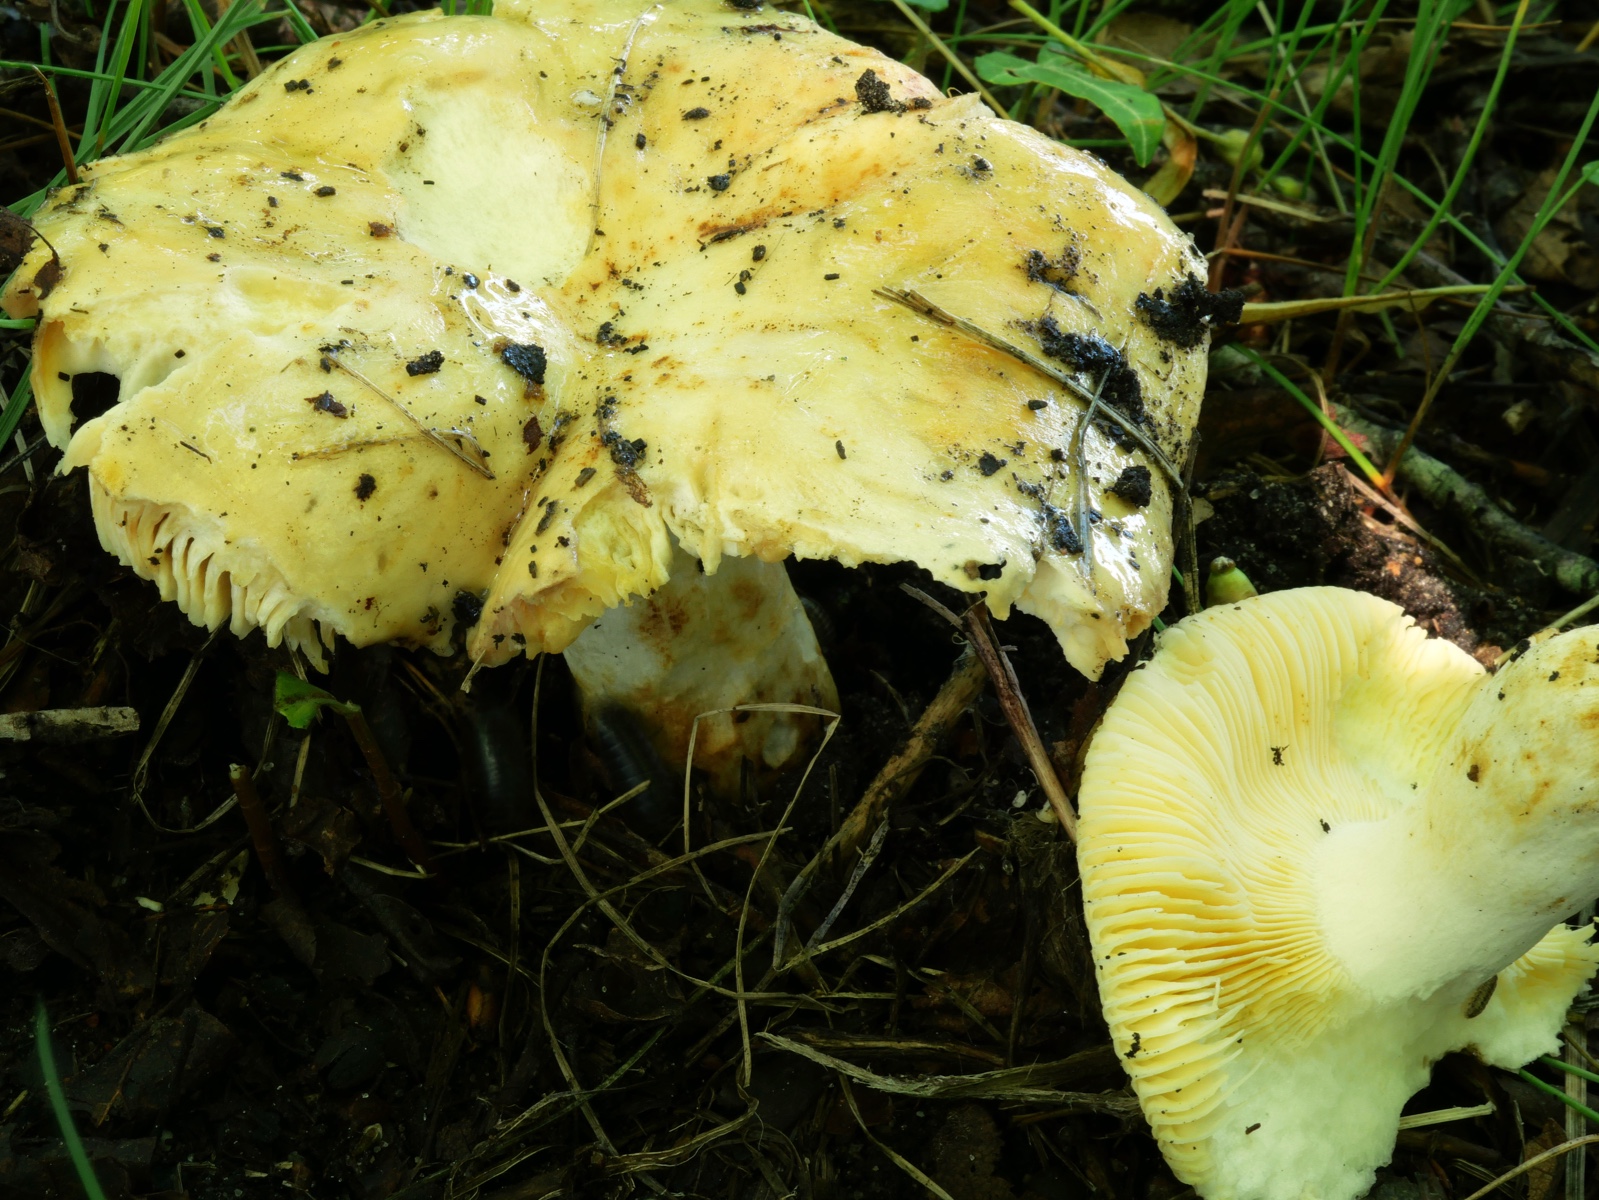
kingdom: Fungi
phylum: Basidiomycota
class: Agaricomycetes
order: Russulales
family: Russulaceae
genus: Russula
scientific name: Russula maculata
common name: plettet skørhat
